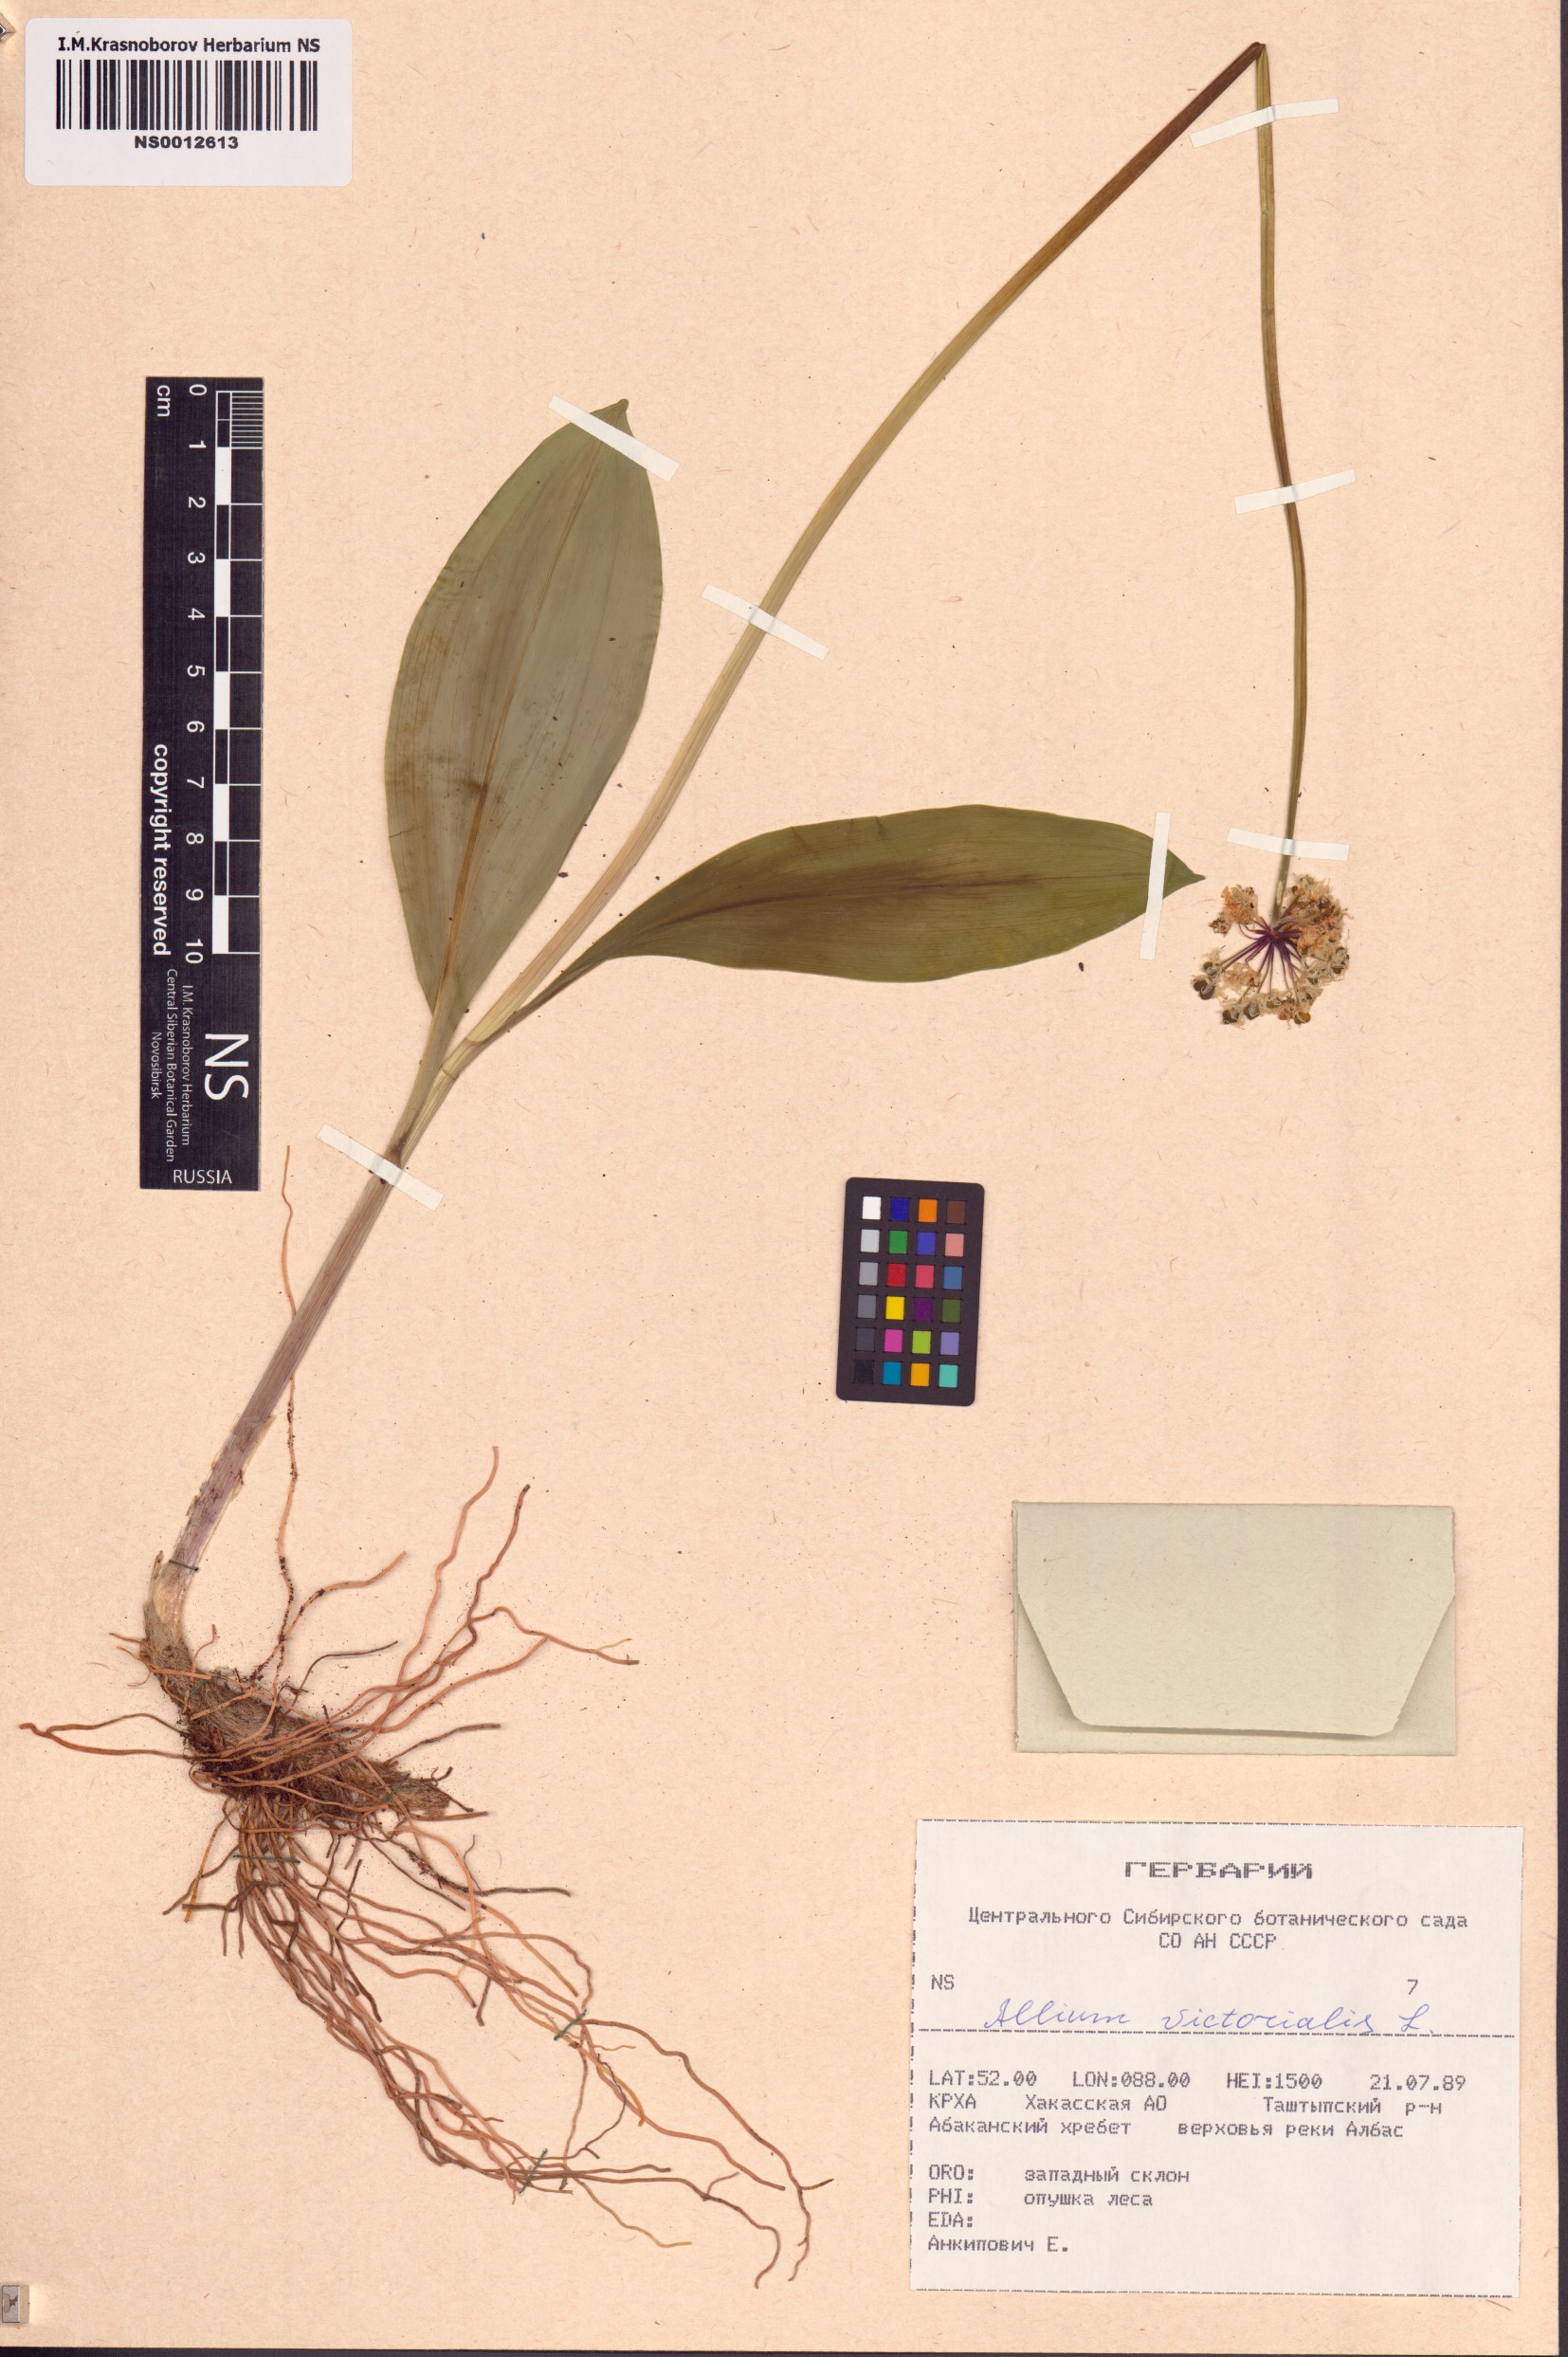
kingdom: Plantae
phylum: Tracheophyta
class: Liliopsida
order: Asparagales
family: Amaryllidaceae
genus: Allium
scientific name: Allium microdictyon
